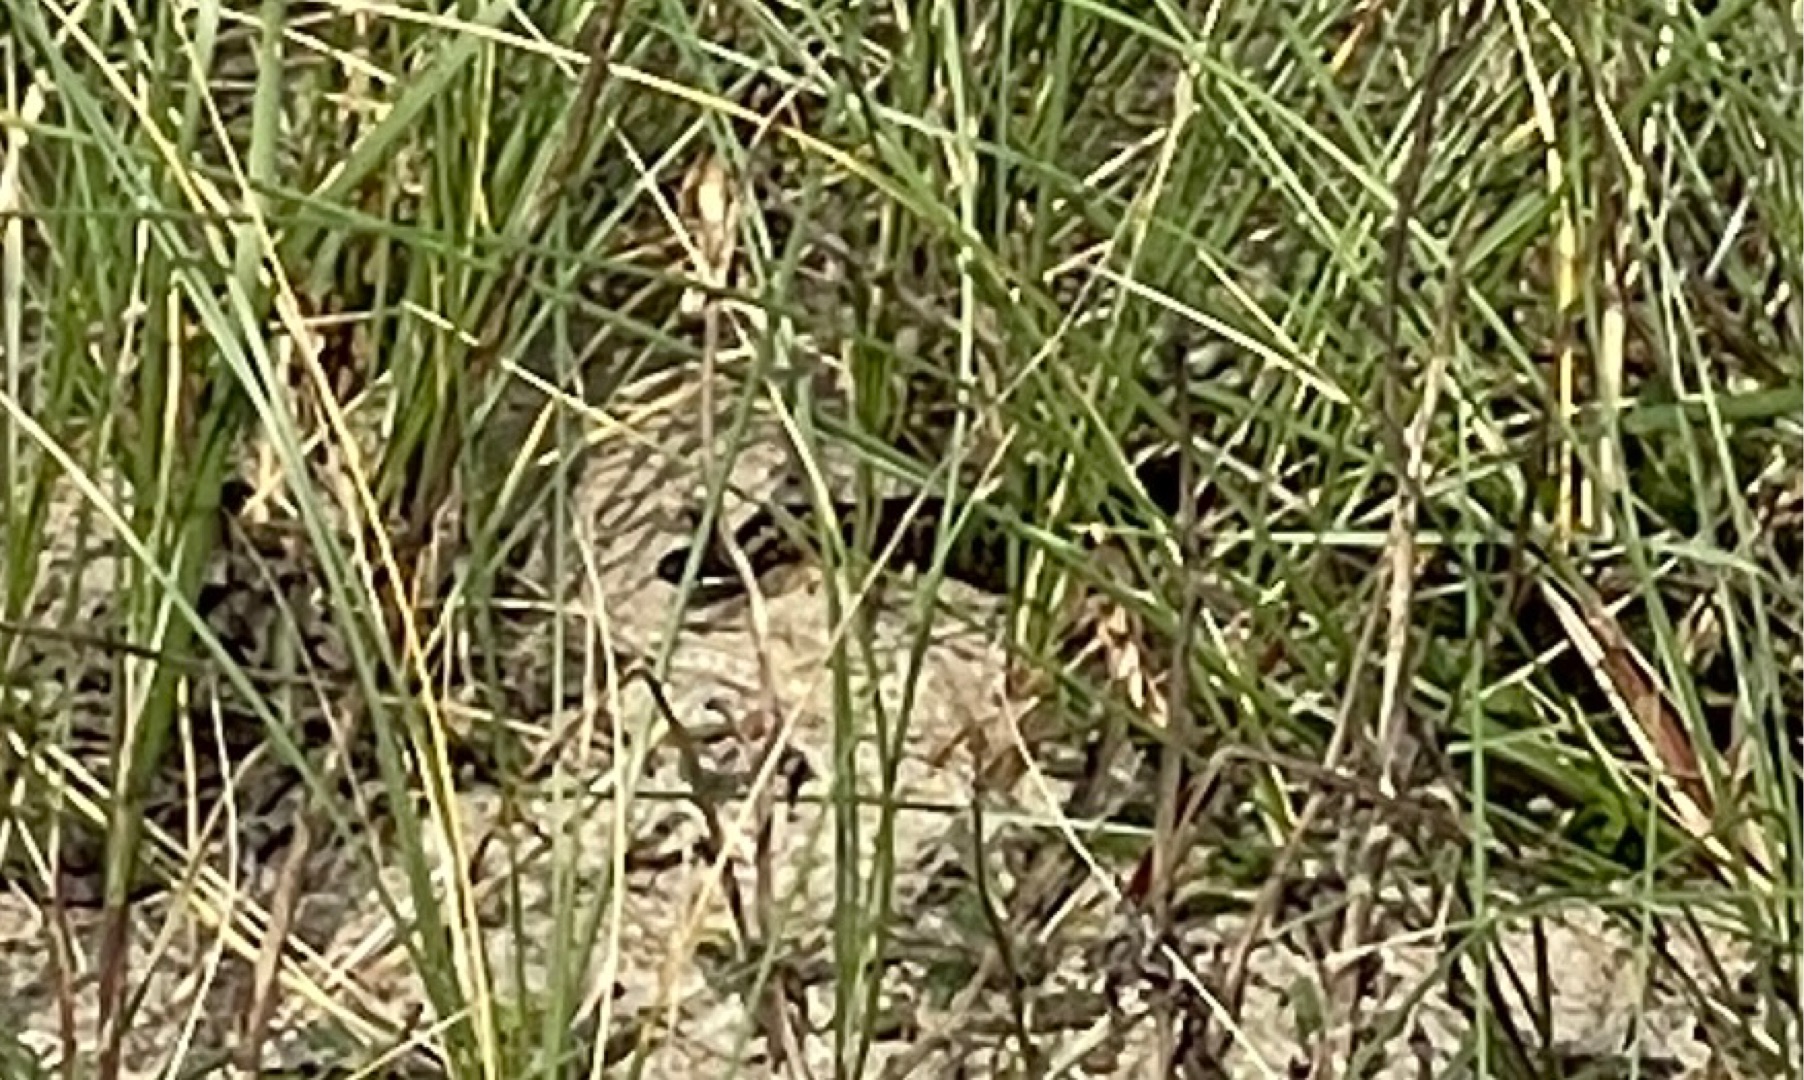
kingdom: Animalia
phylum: Chordata
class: Squamata
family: Viperidae
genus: Vipera
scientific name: Vipera berus
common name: Hugorm
